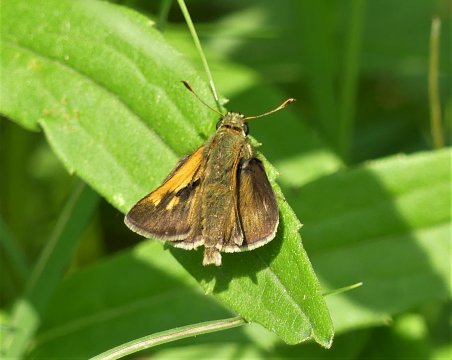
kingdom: Animalia
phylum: Arthropoda
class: Insecta
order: Lepidoptera
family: Hesperiidae
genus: Polites
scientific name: Polites themistocles
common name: Tawny-edged Skipper
